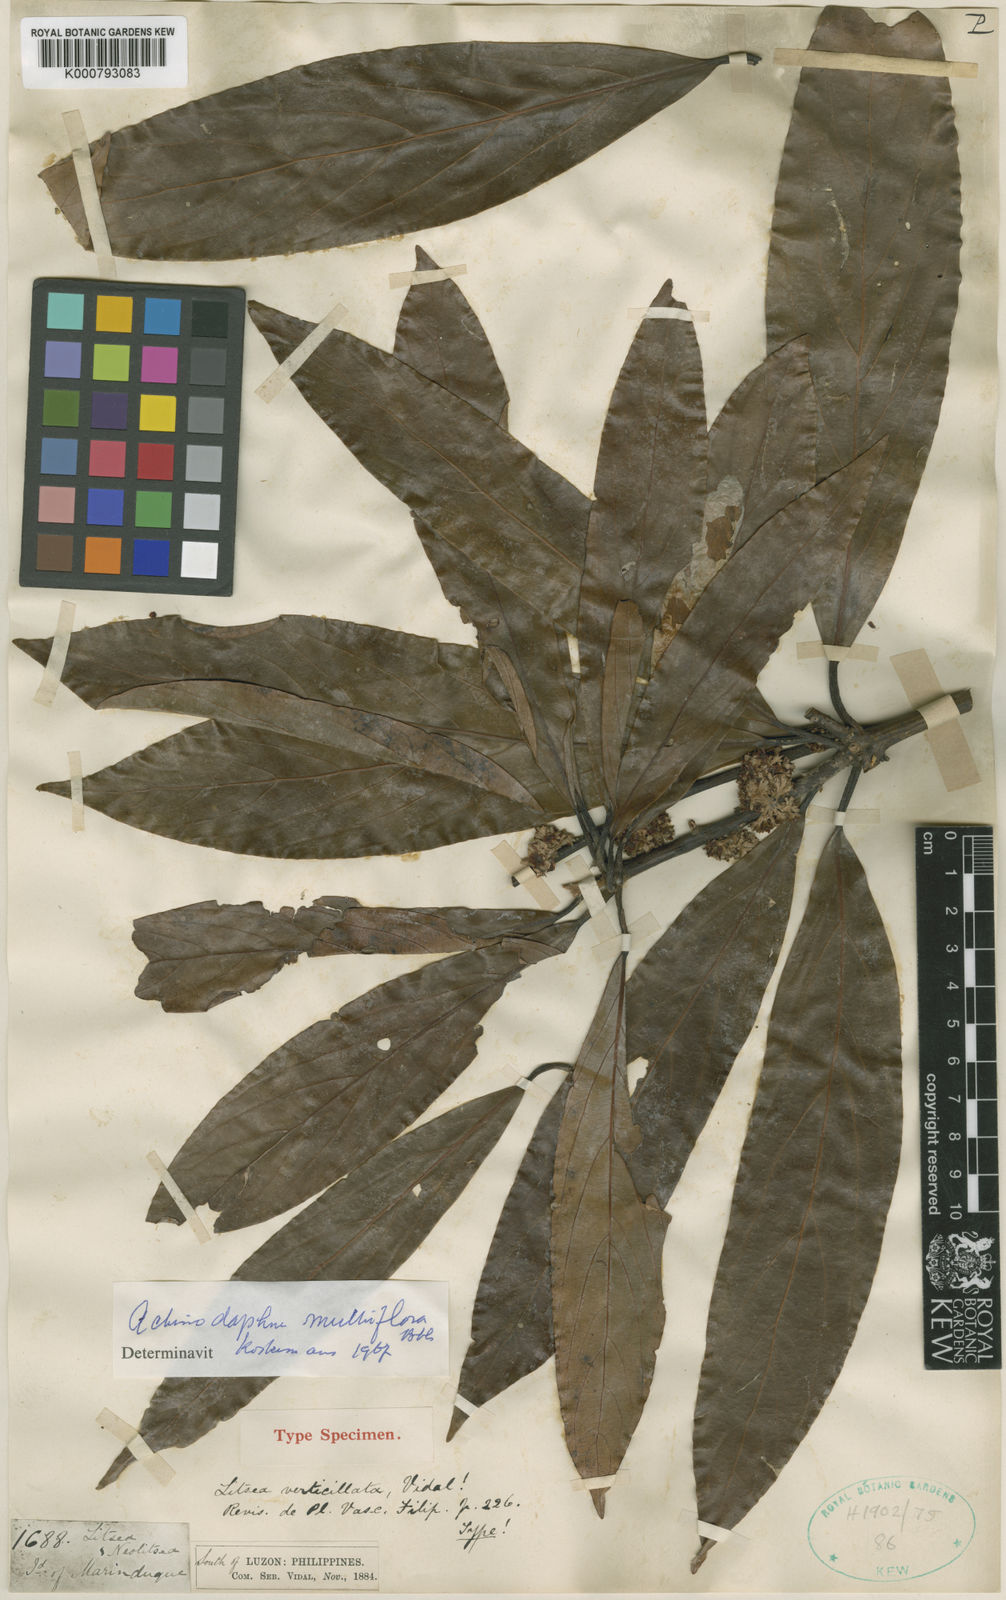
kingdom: Plantae
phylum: Tracheophyta
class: Magnoliopsida
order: Laurales
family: Lauraceae
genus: Actinodaphne
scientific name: Actinodaphne multiflora
